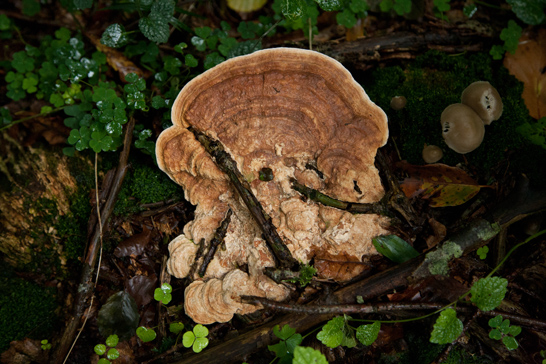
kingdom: Fungi
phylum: Basidiomycota
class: Agaricomycetes
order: Polyporales
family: Fomitopsidaceae
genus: Daedalea
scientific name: Daedalea quercina
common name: ege-labyrintsvamp
